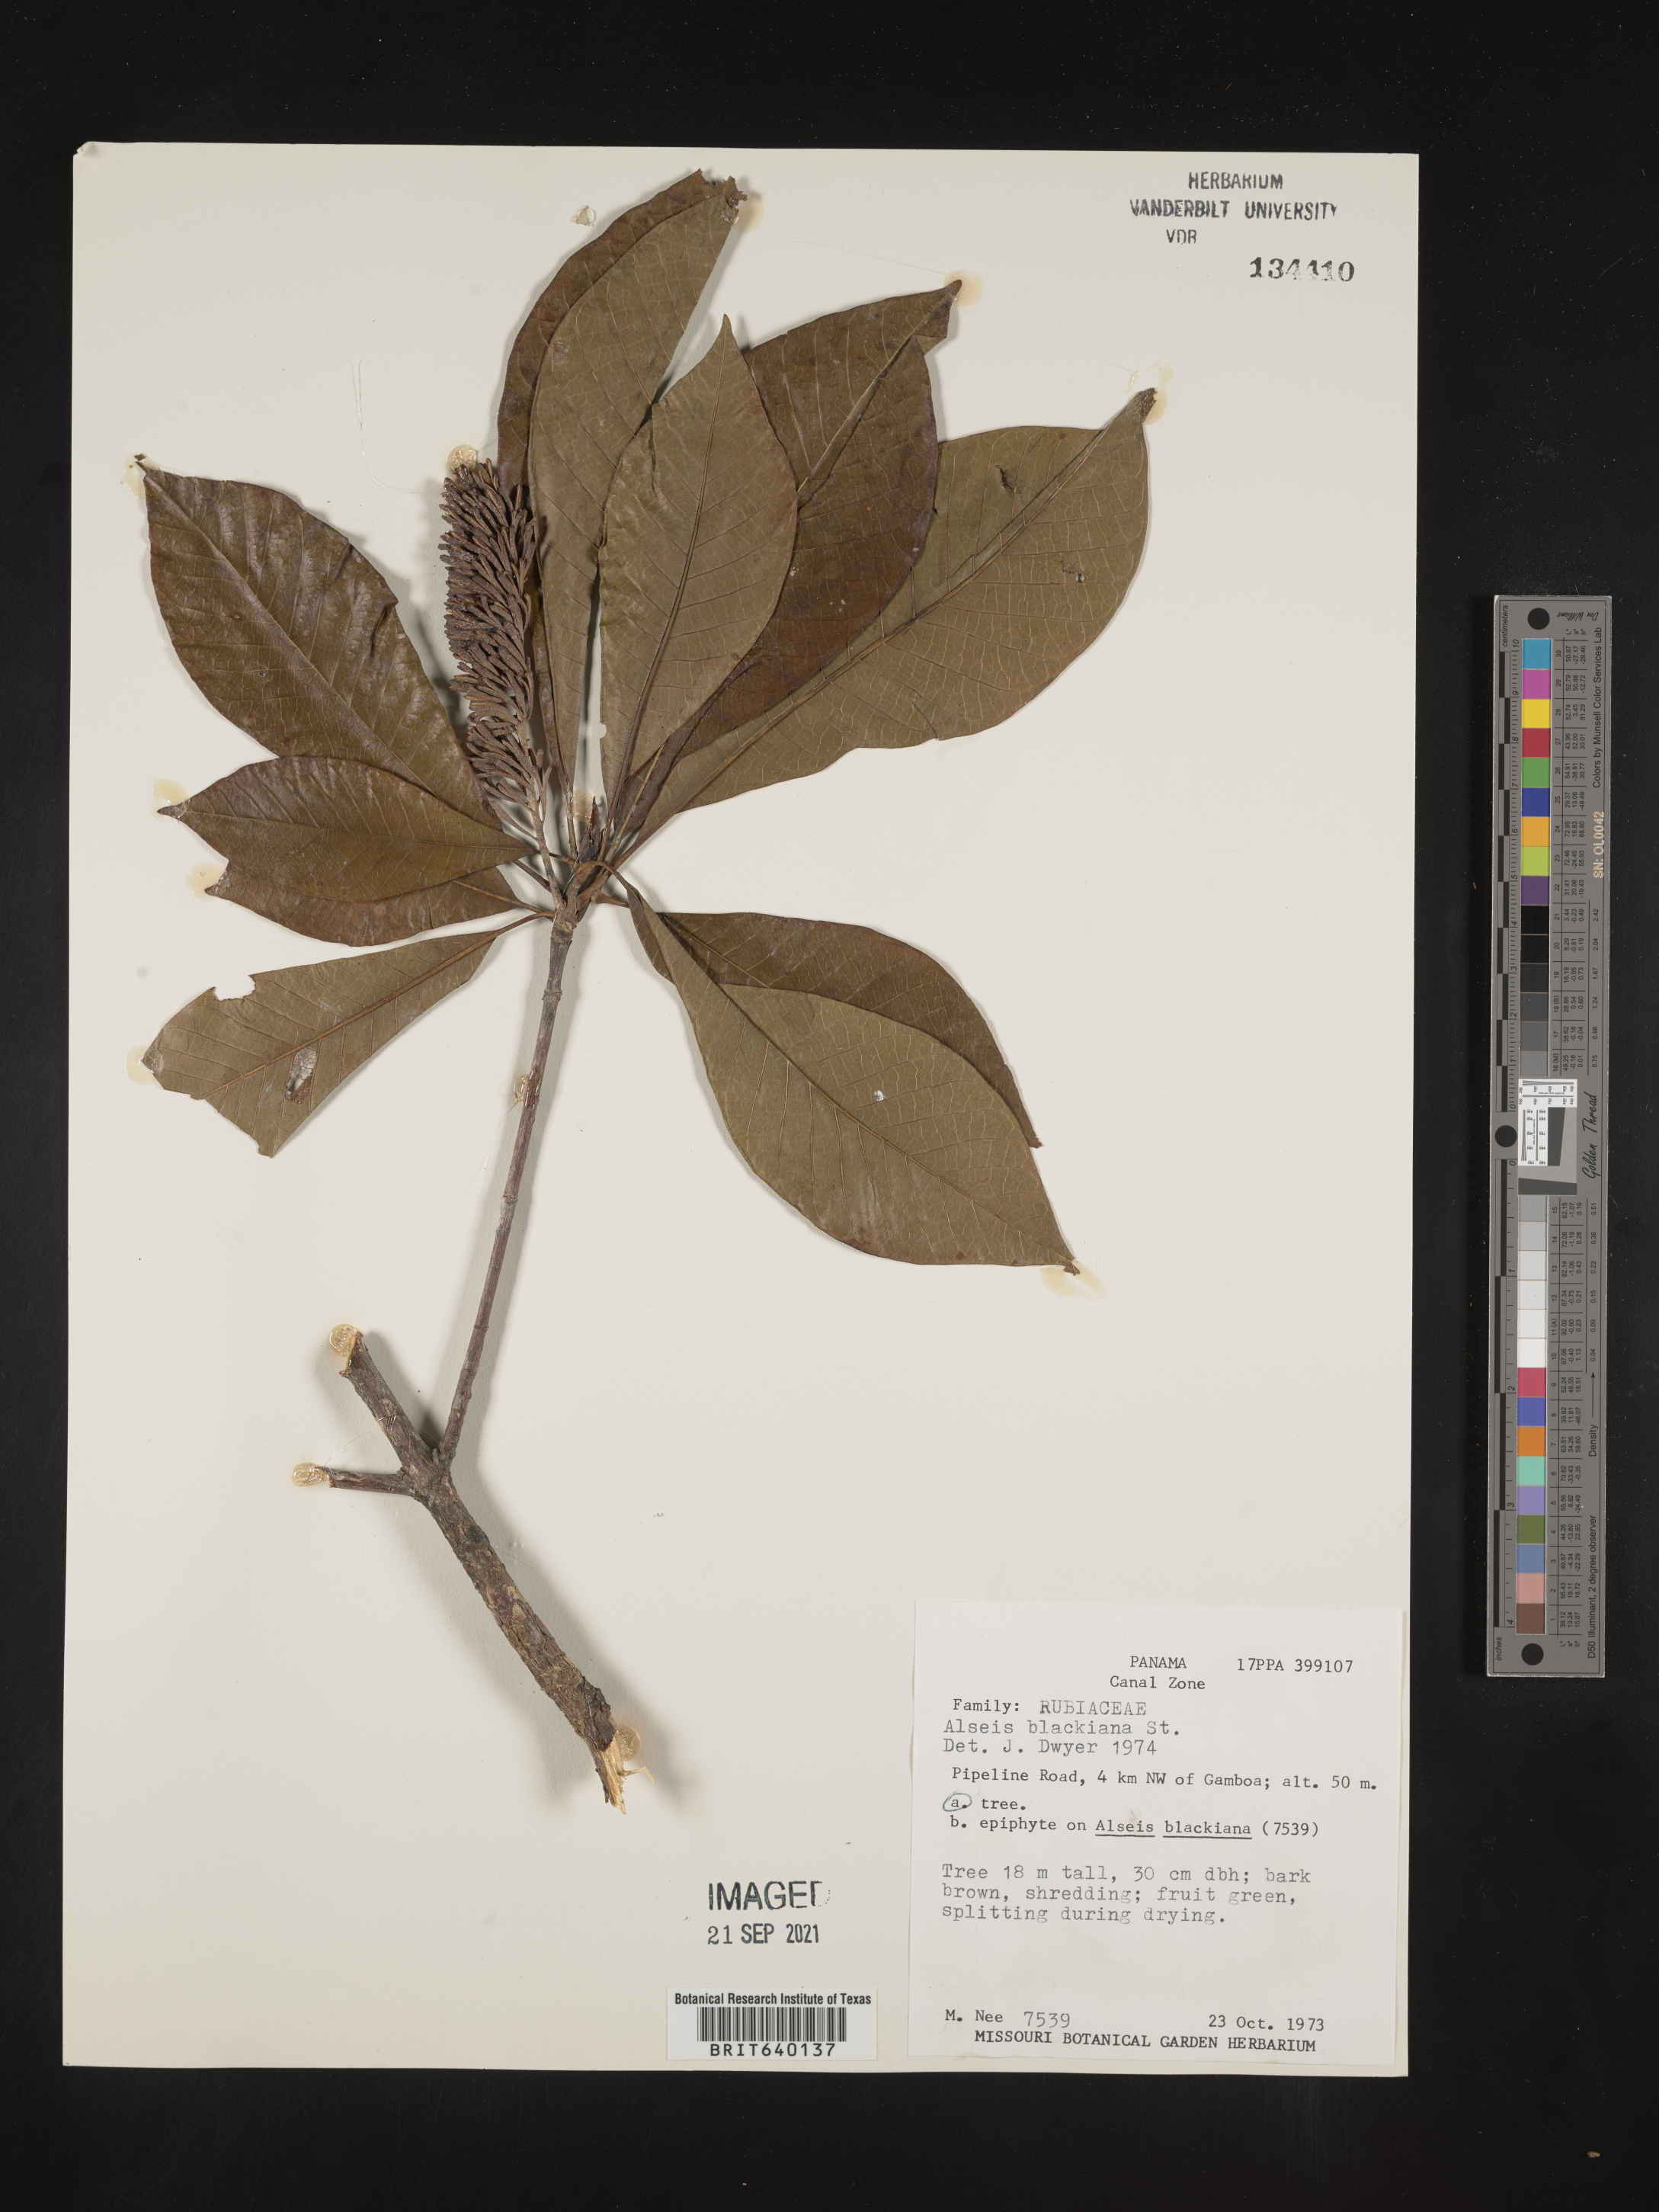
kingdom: Plantae
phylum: Tracheophyta
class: Magnoliopsida
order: Gentianales
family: Rubiaceae
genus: Alseis
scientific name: Alseis
